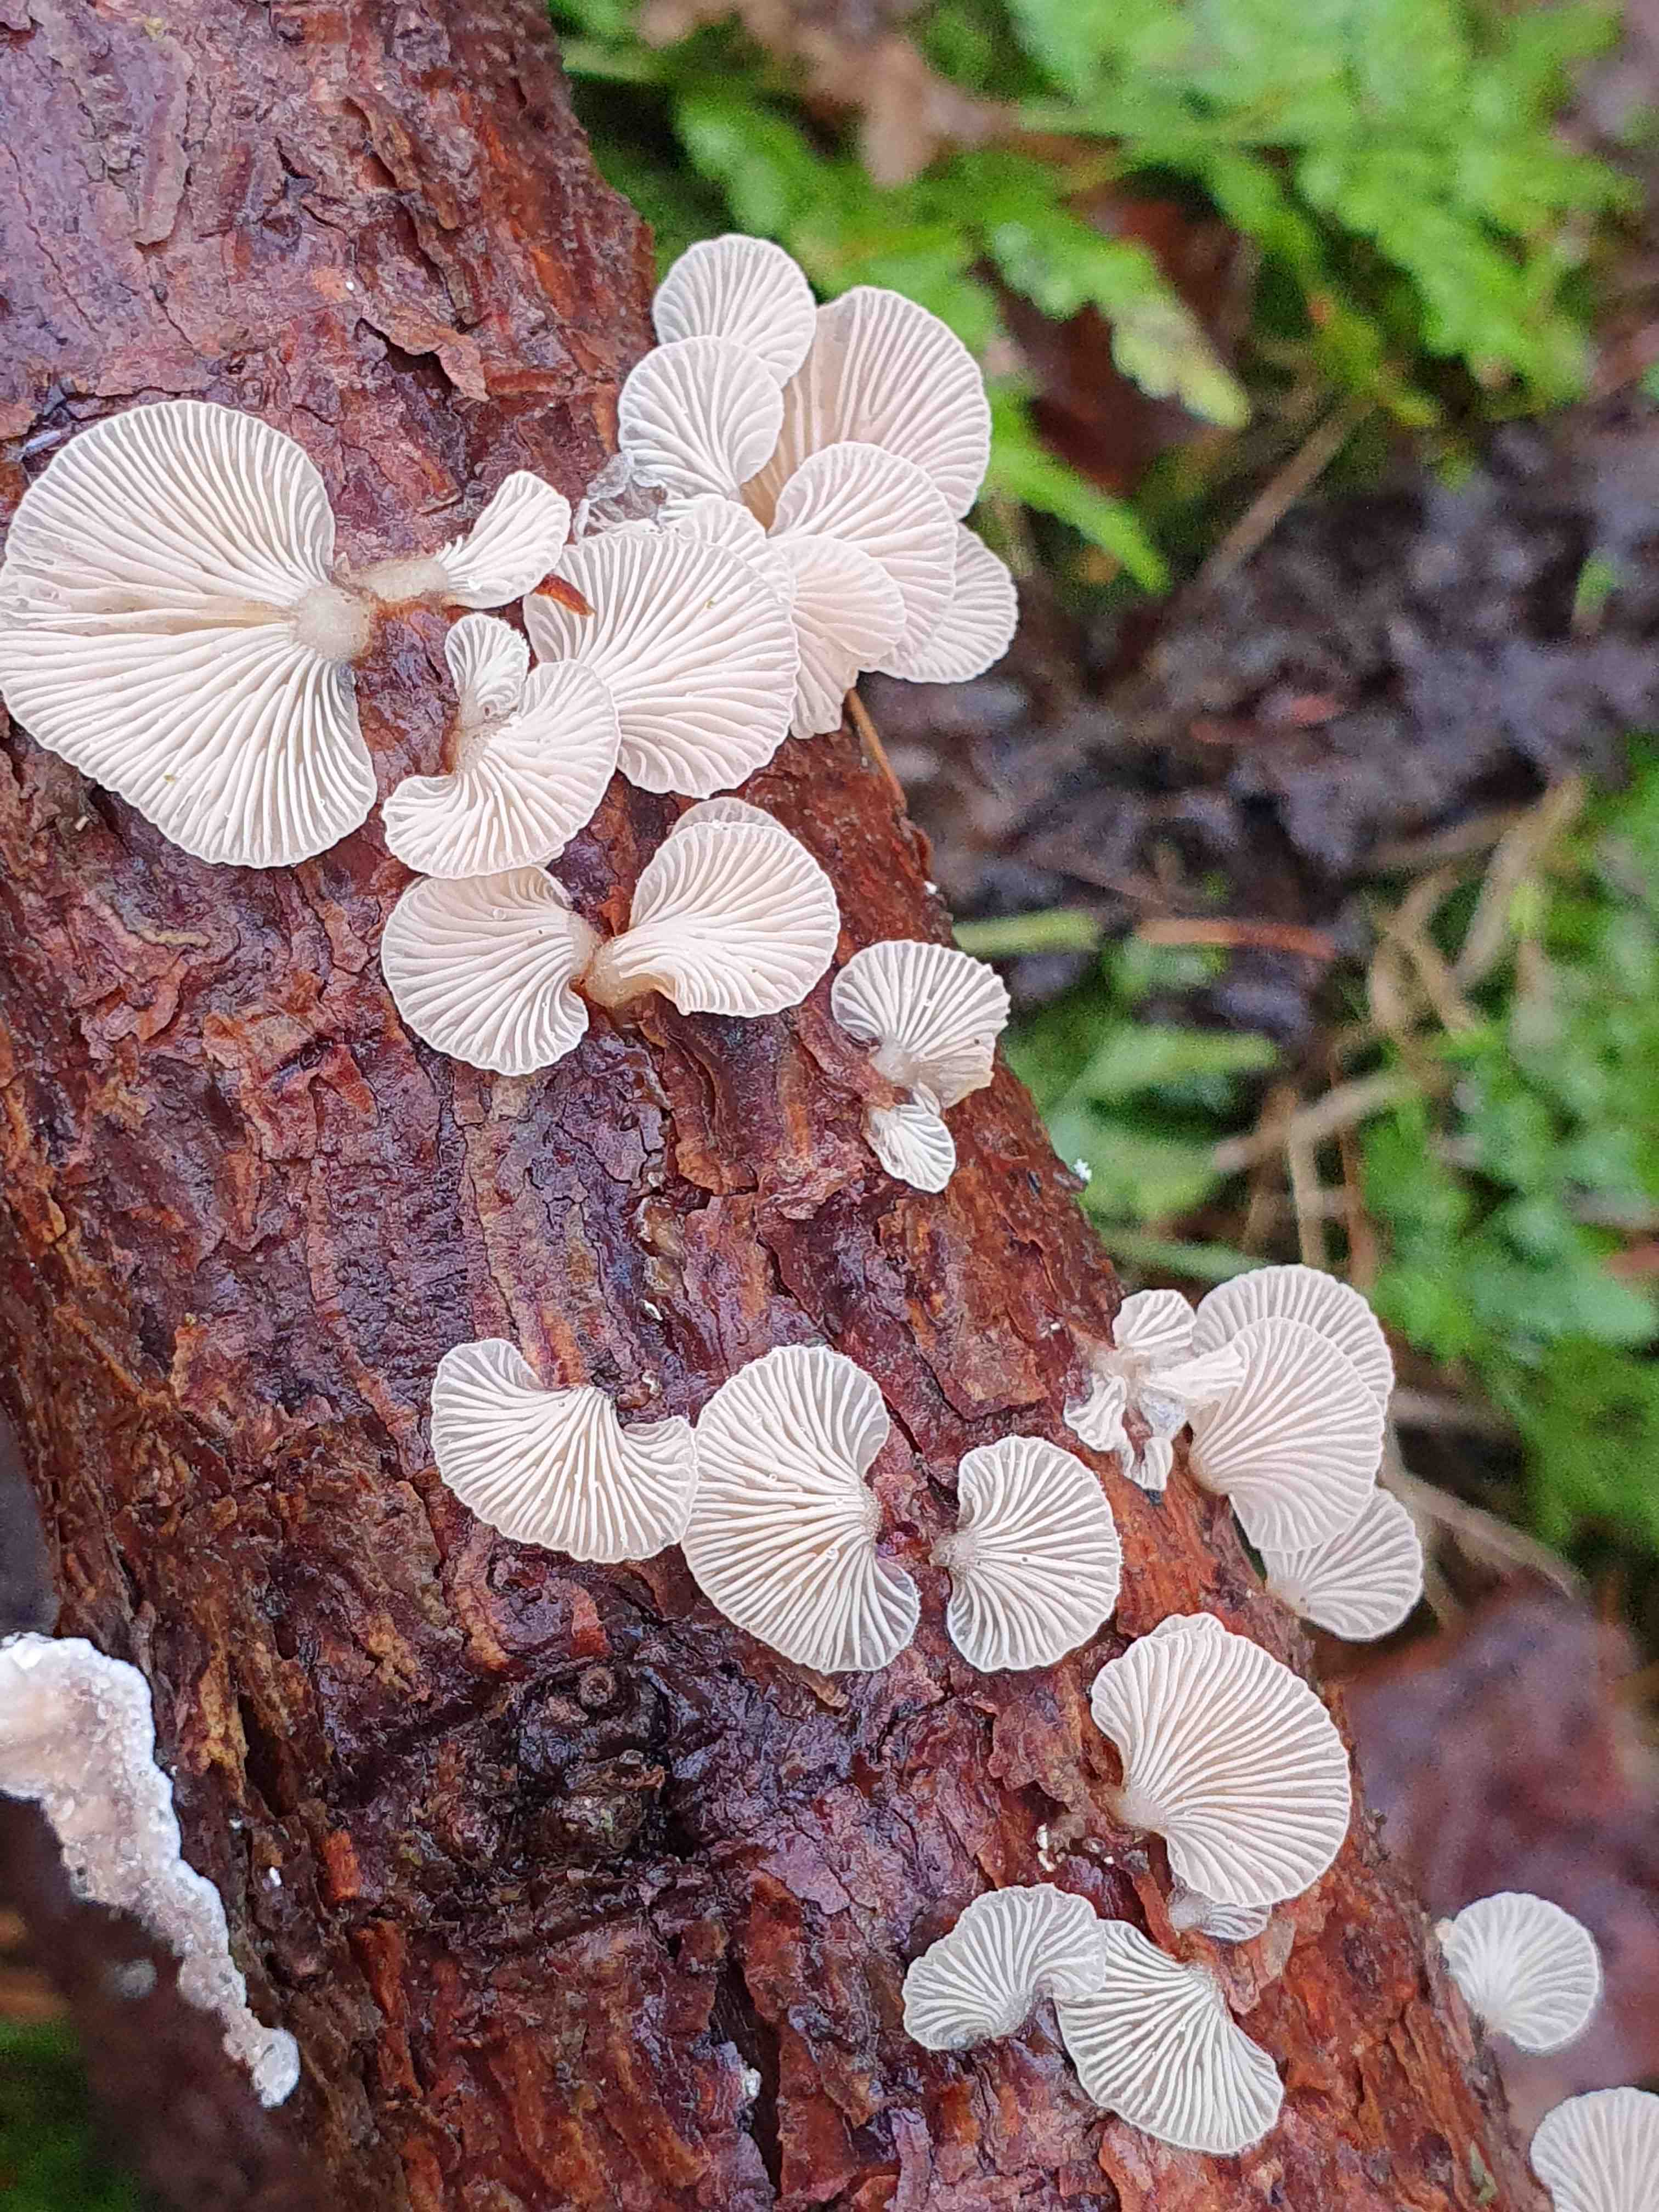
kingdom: Fungi
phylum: Basidiomycota
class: Agaricomycetes
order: Agaricales
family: Mycenaceae
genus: Panellus
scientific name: Panellus mitis
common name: mild epaulethat
